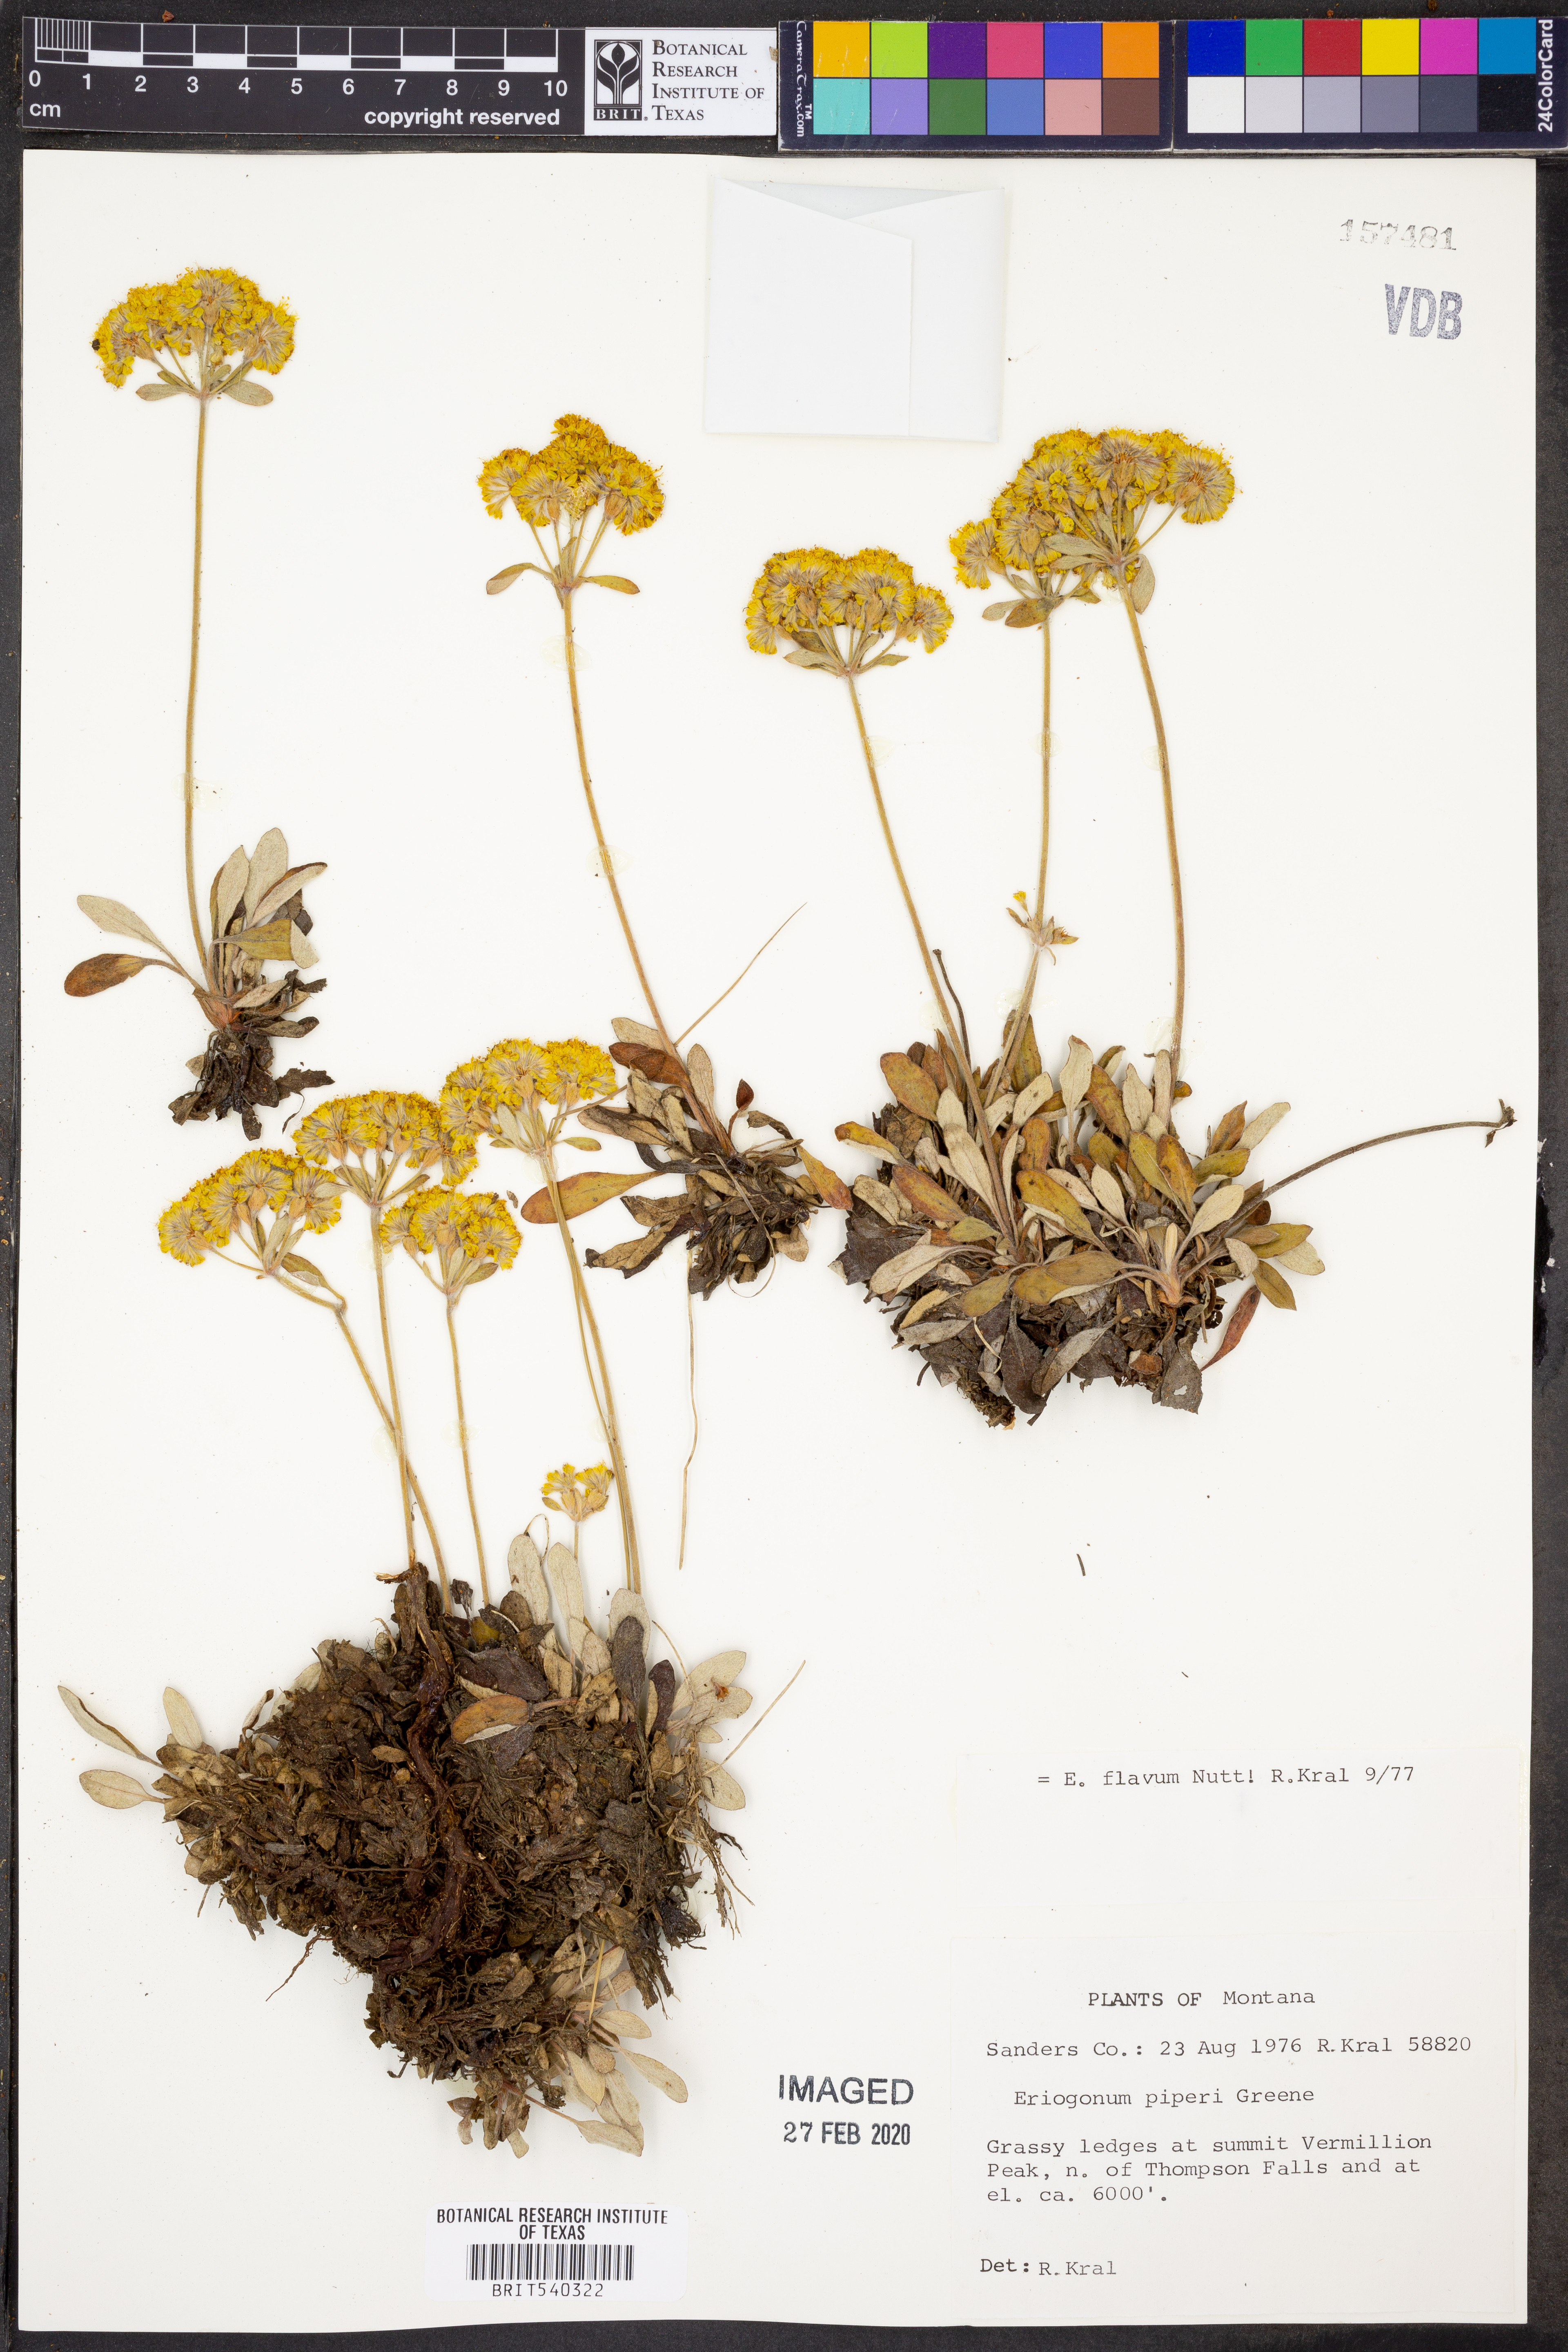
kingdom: Plantae
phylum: Tracheophyta
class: Magnoliopsida
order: Caryophyllales
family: Polygonaceae
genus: Eriogonum
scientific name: Eriogonum flavum
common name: Alpine golden wild buckwheat
